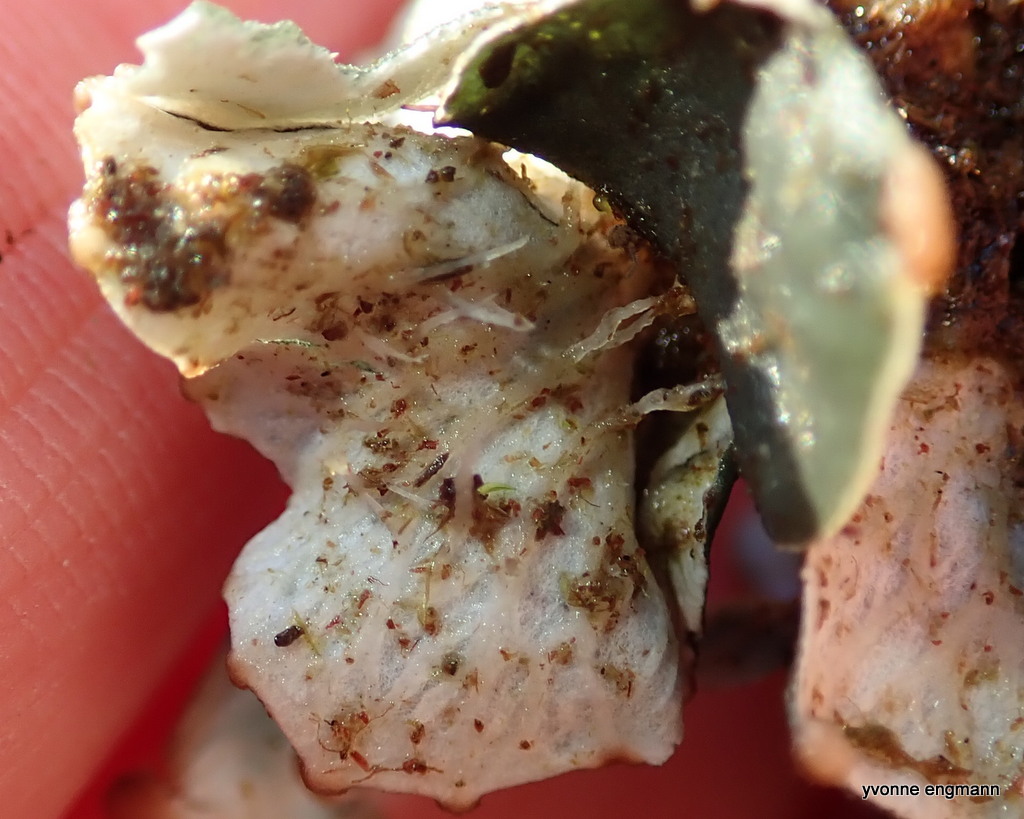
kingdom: Fungi
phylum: Ascomycota
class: Lecanoromycetes
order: Peltigerales
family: Peltigeraceae
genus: Peltigera
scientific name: Peltigera didactyla
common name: liden skjoldlav
